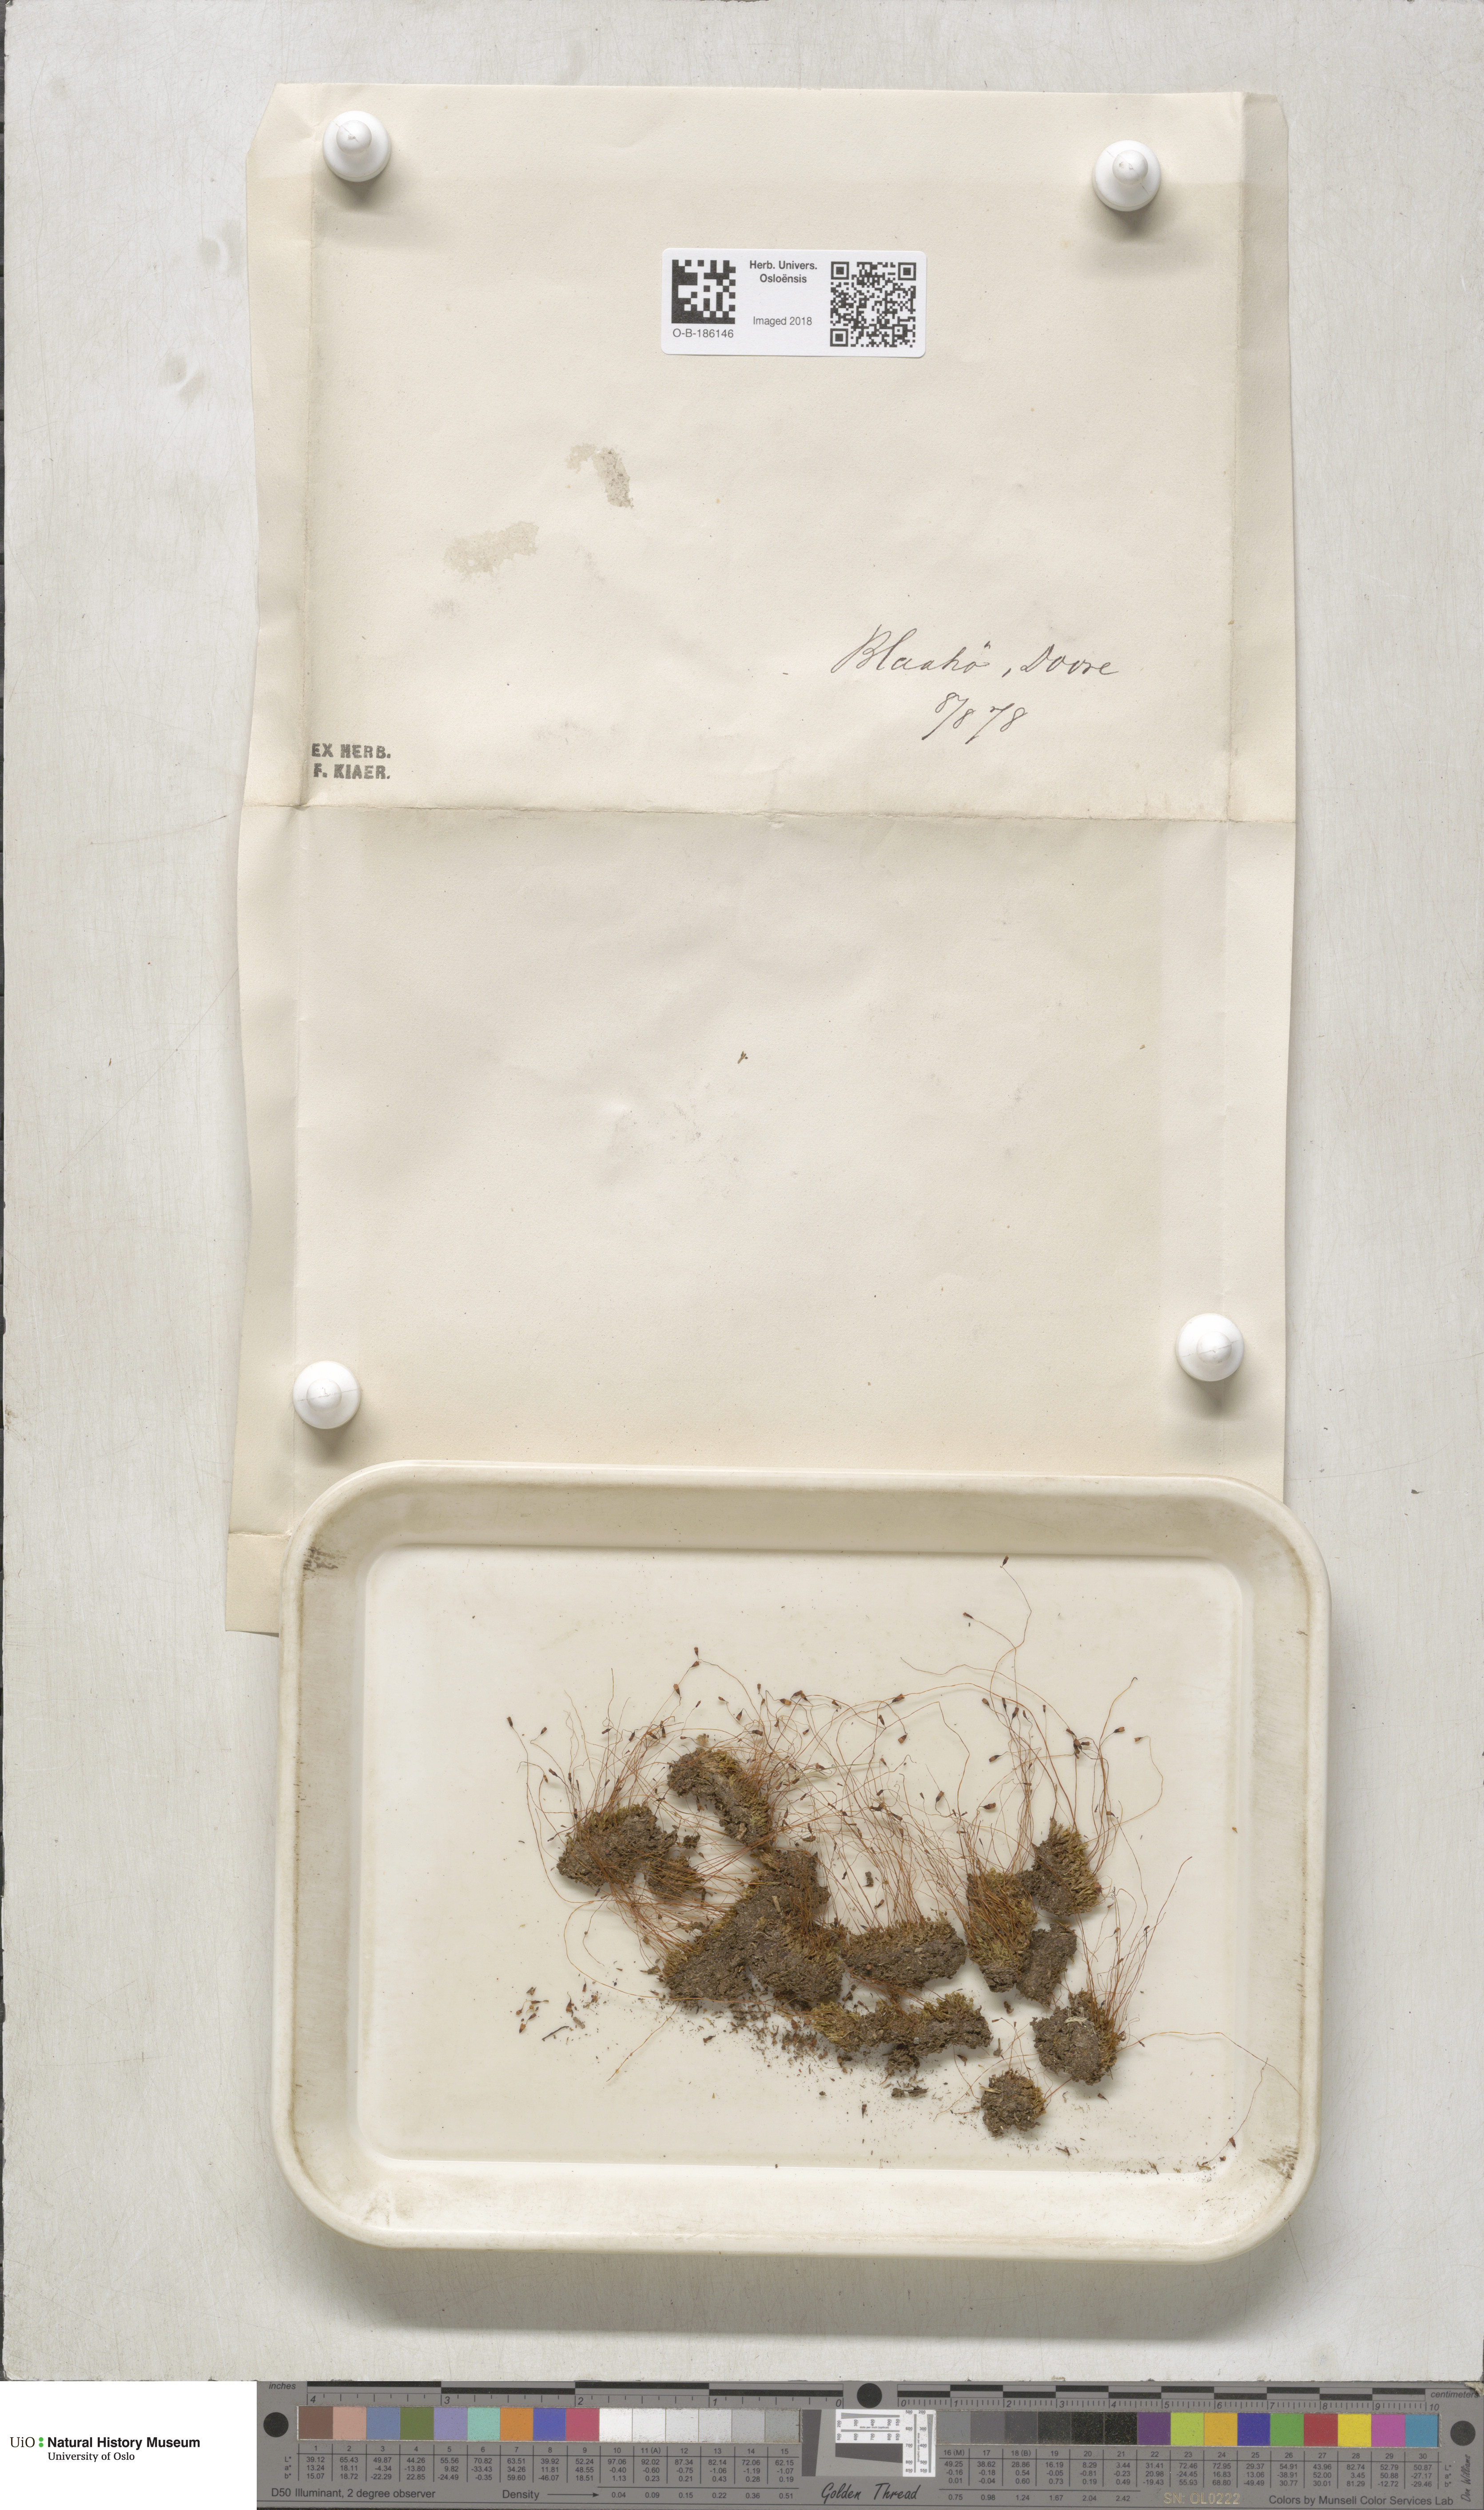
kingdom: Plantae
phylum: Bryophyta
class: Bryopsida
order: Splachnales
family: Splachnaceae
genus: Splachnum
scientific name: Splachnum sphaericum
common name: Round-fruited dung moss
